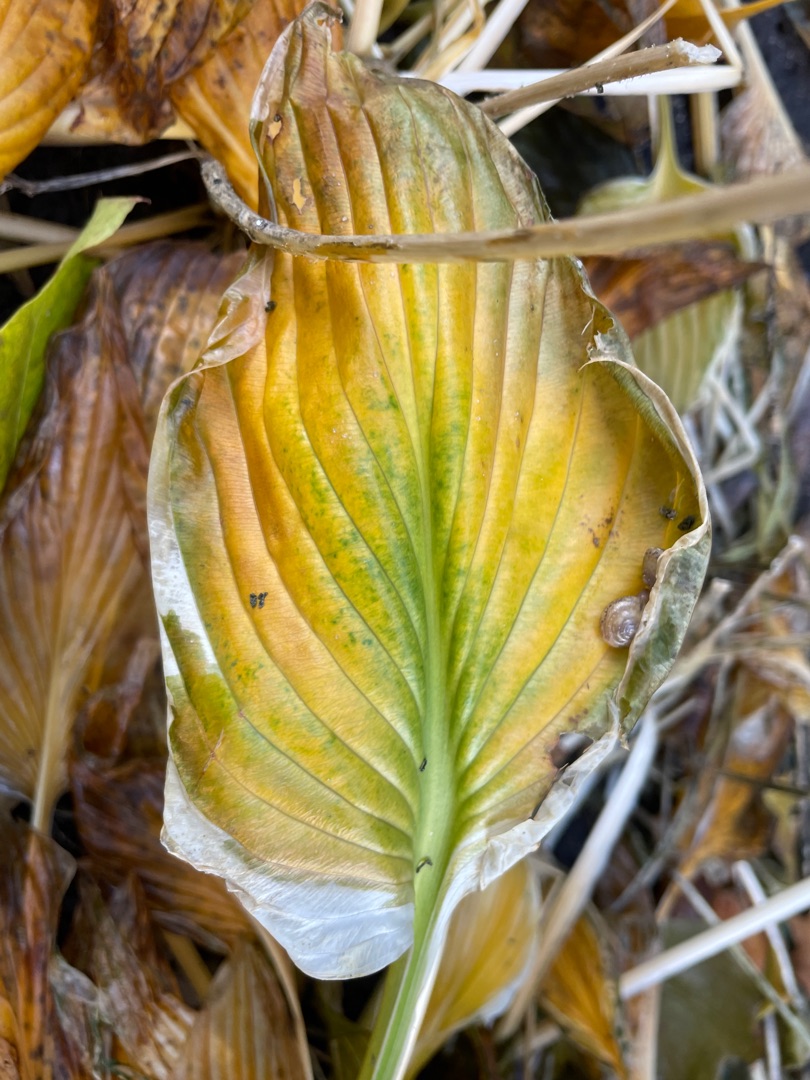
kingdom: Plantae
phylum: Tracheophyta
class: Liliopsida
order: Asparagales
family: Asparagaceae
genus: Hosta
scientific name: Hosta sieboldiana
